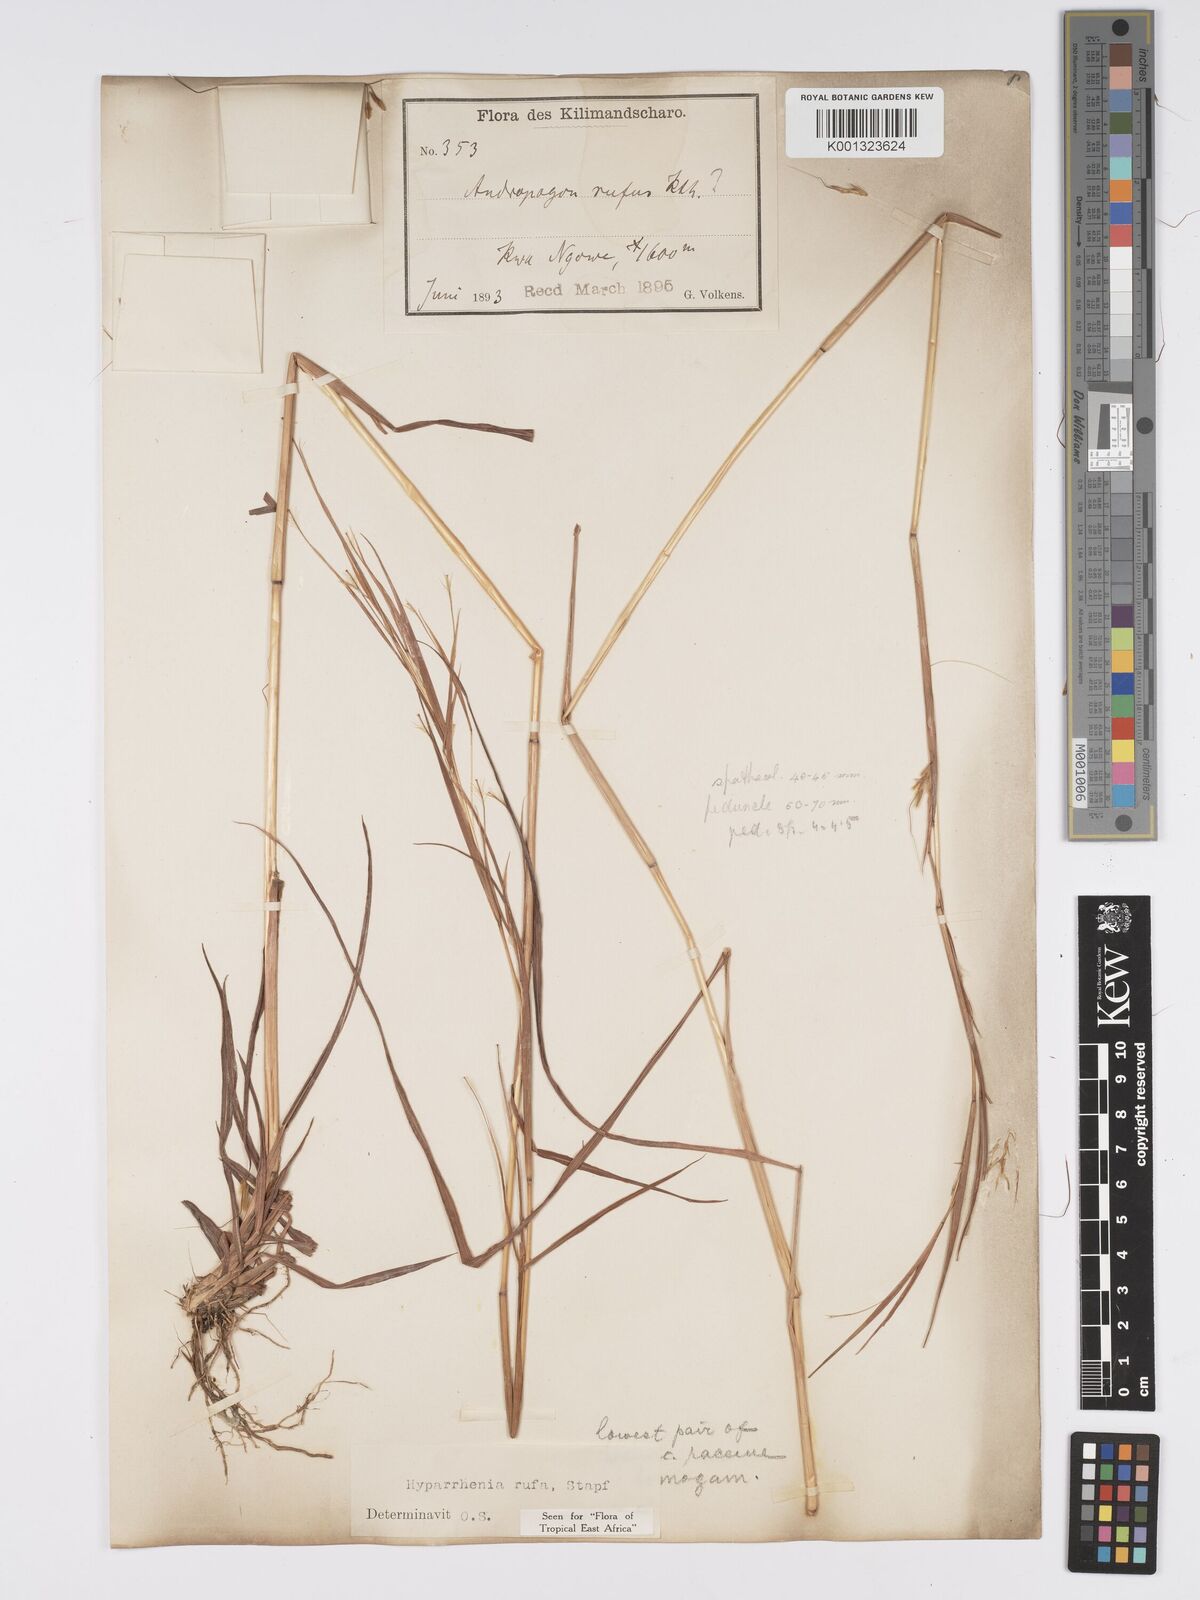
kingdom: Plantae
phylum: Tracheophyta
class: Liliopsida
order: Poales
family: Poaceae
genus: Hyparrhenia
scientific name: Hyparrhenia rufa
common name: Jaraguagrass
